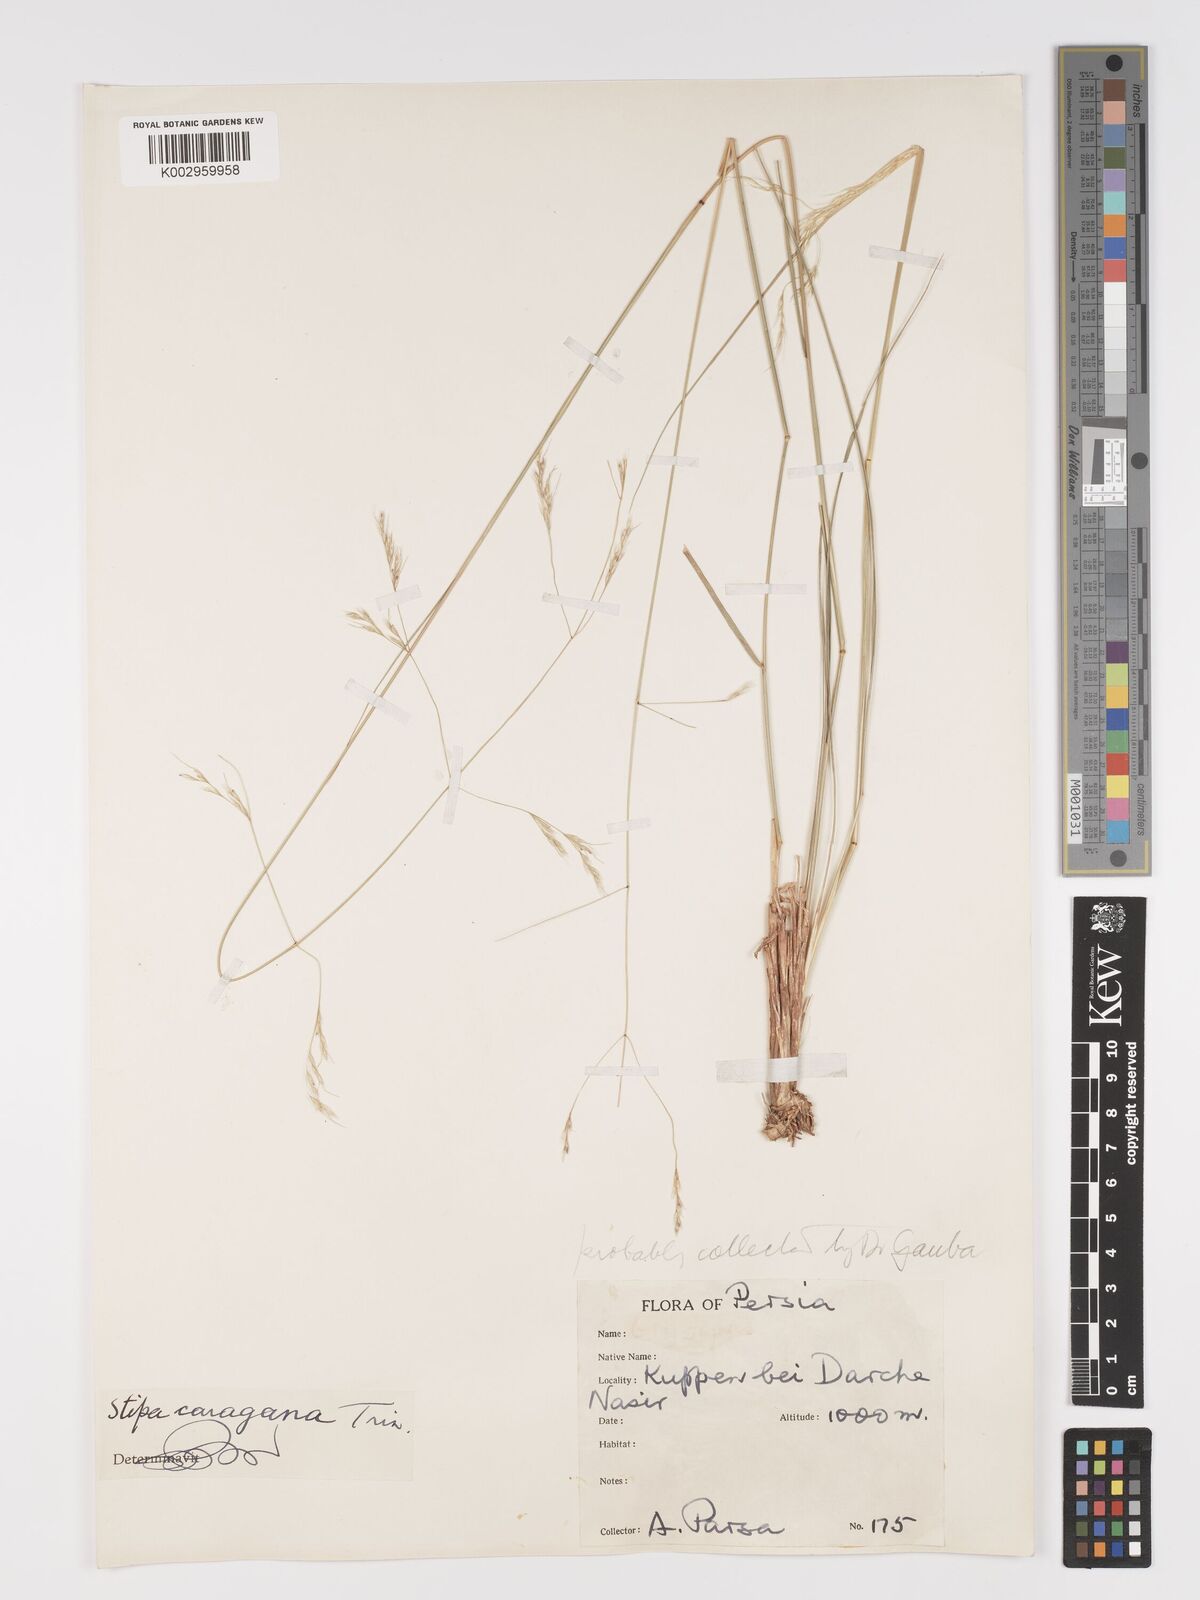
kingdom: Plantae
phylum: Tracheophyta
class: Liliopsida
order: Poales
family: Poaceae
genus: Stipa
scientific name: Stipa conferta
